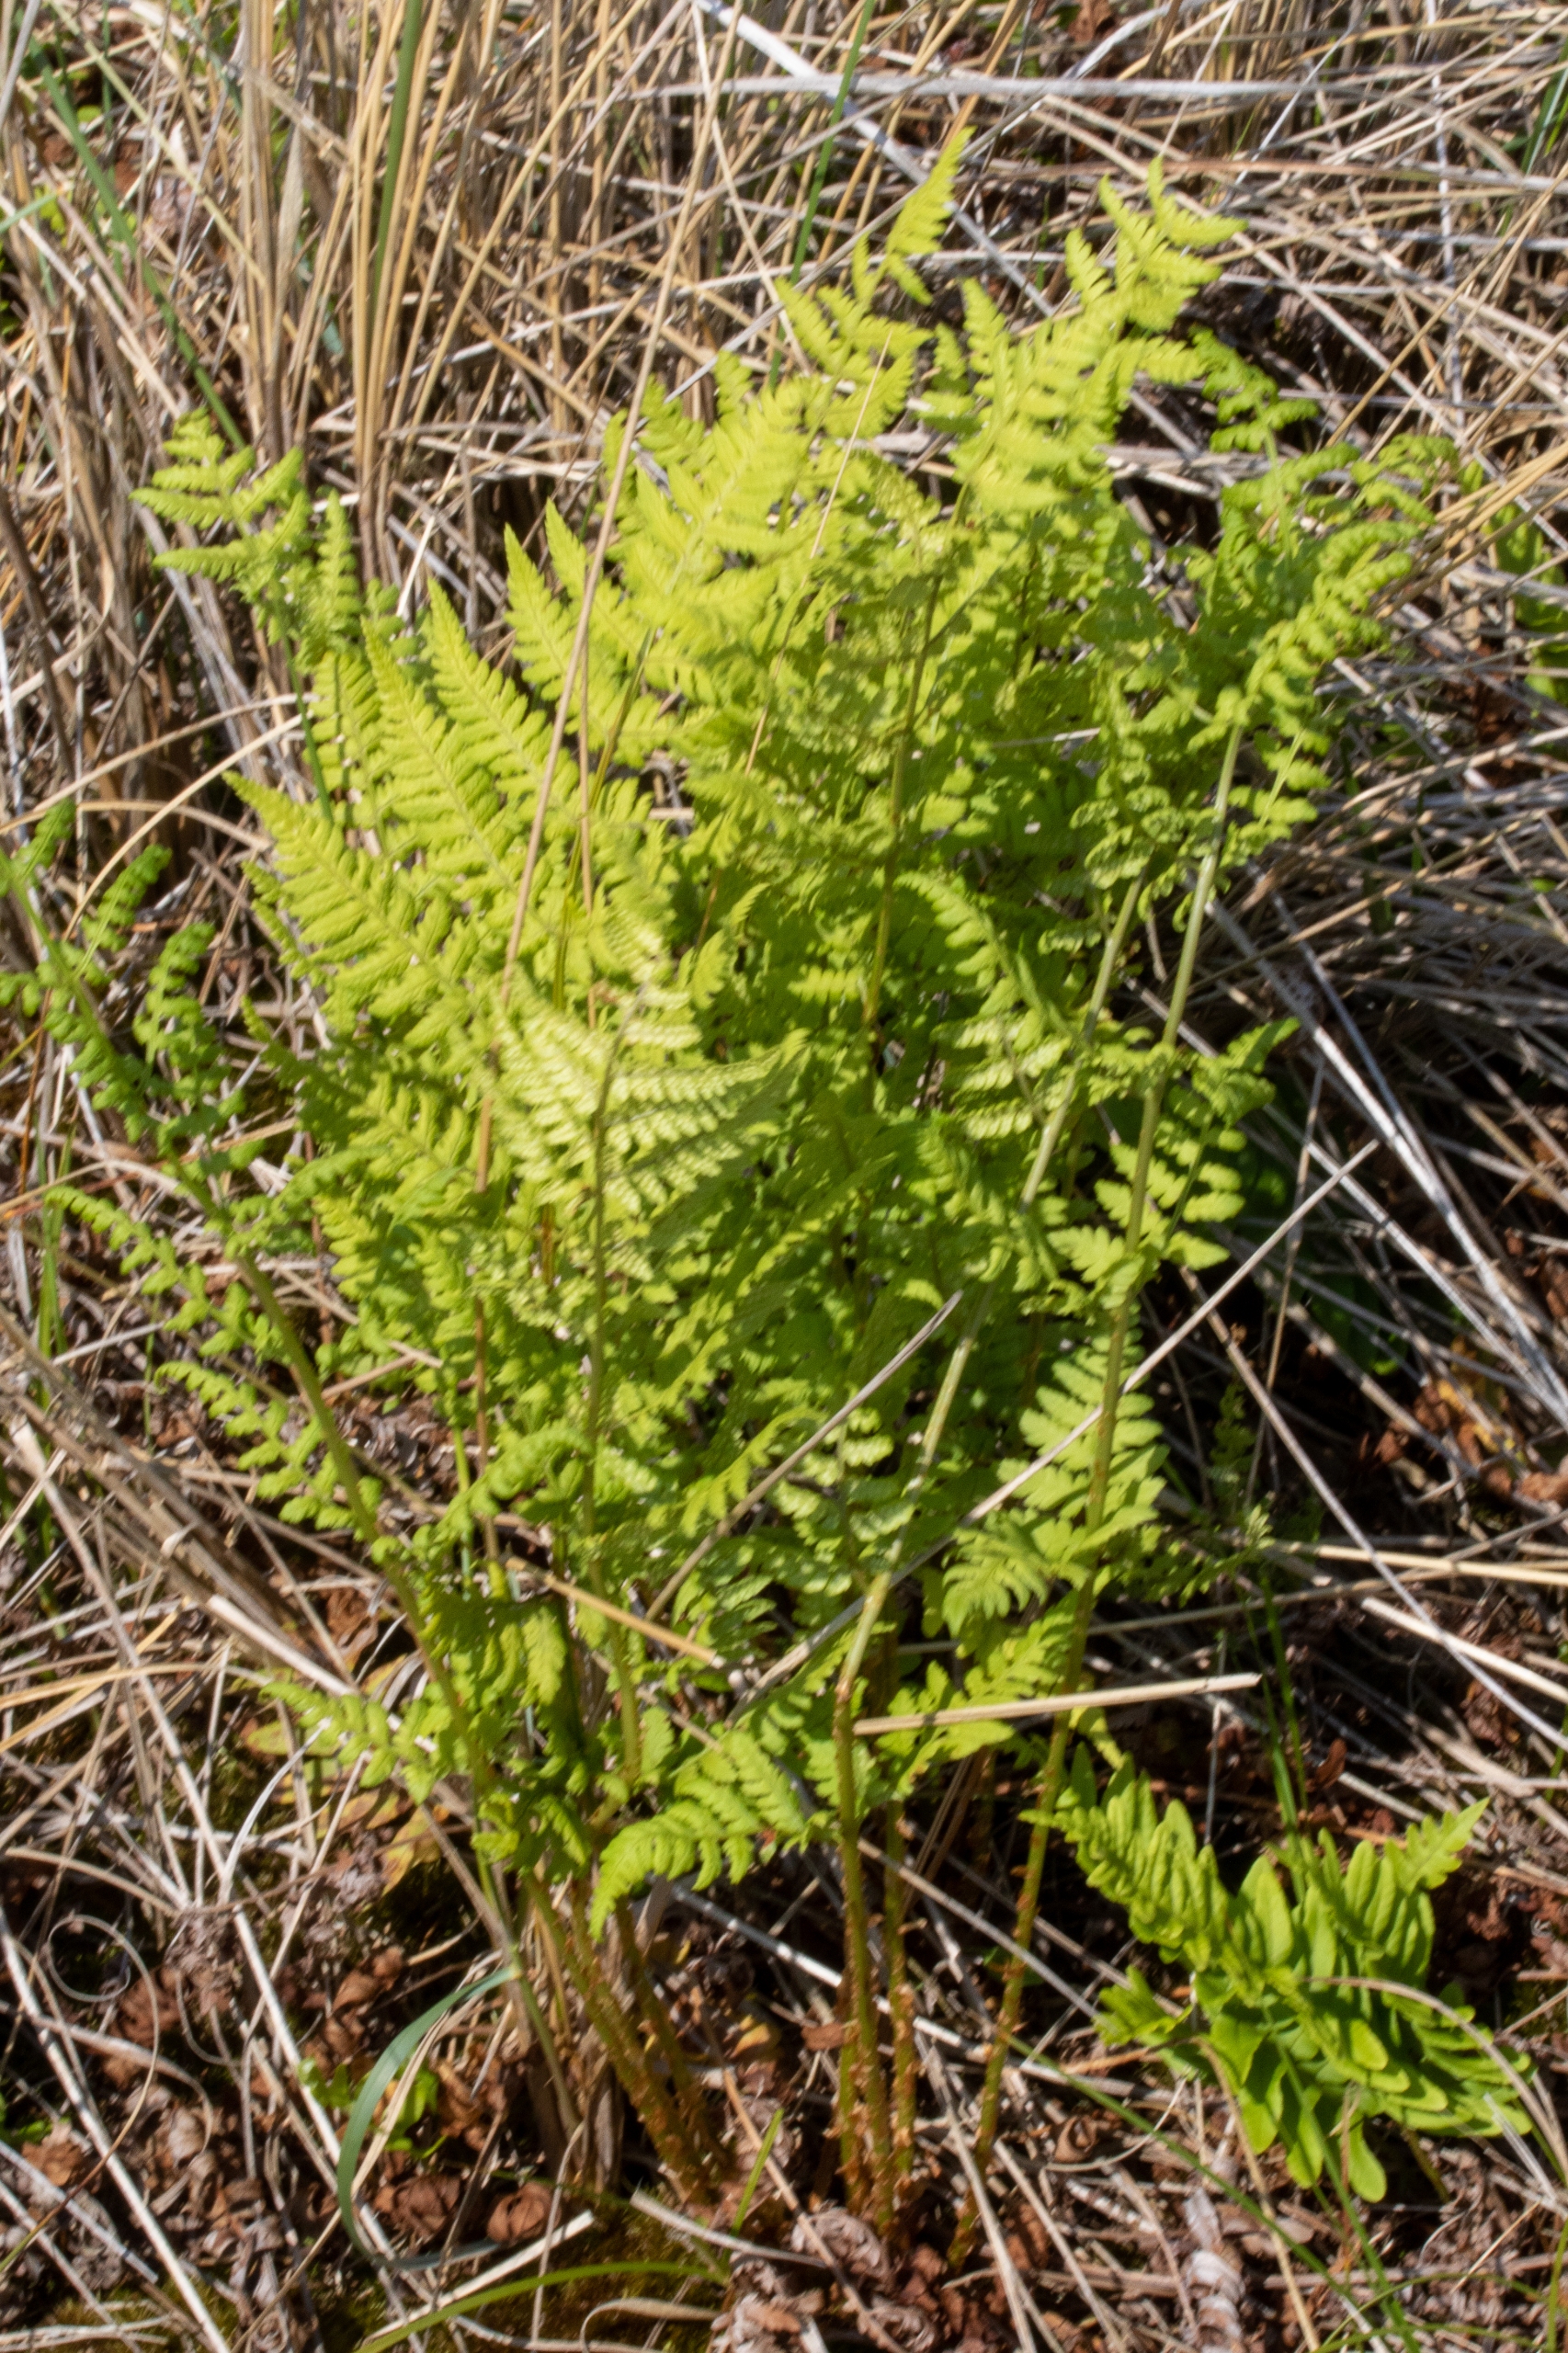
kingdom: Plantae
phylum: Tracheophyta
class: Polypodiopsida
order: Polypodiales
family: Dryopteridaceae
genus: Dryopteris
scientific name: Dryopteris carthusiana
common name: Smalbladet mangeløv
